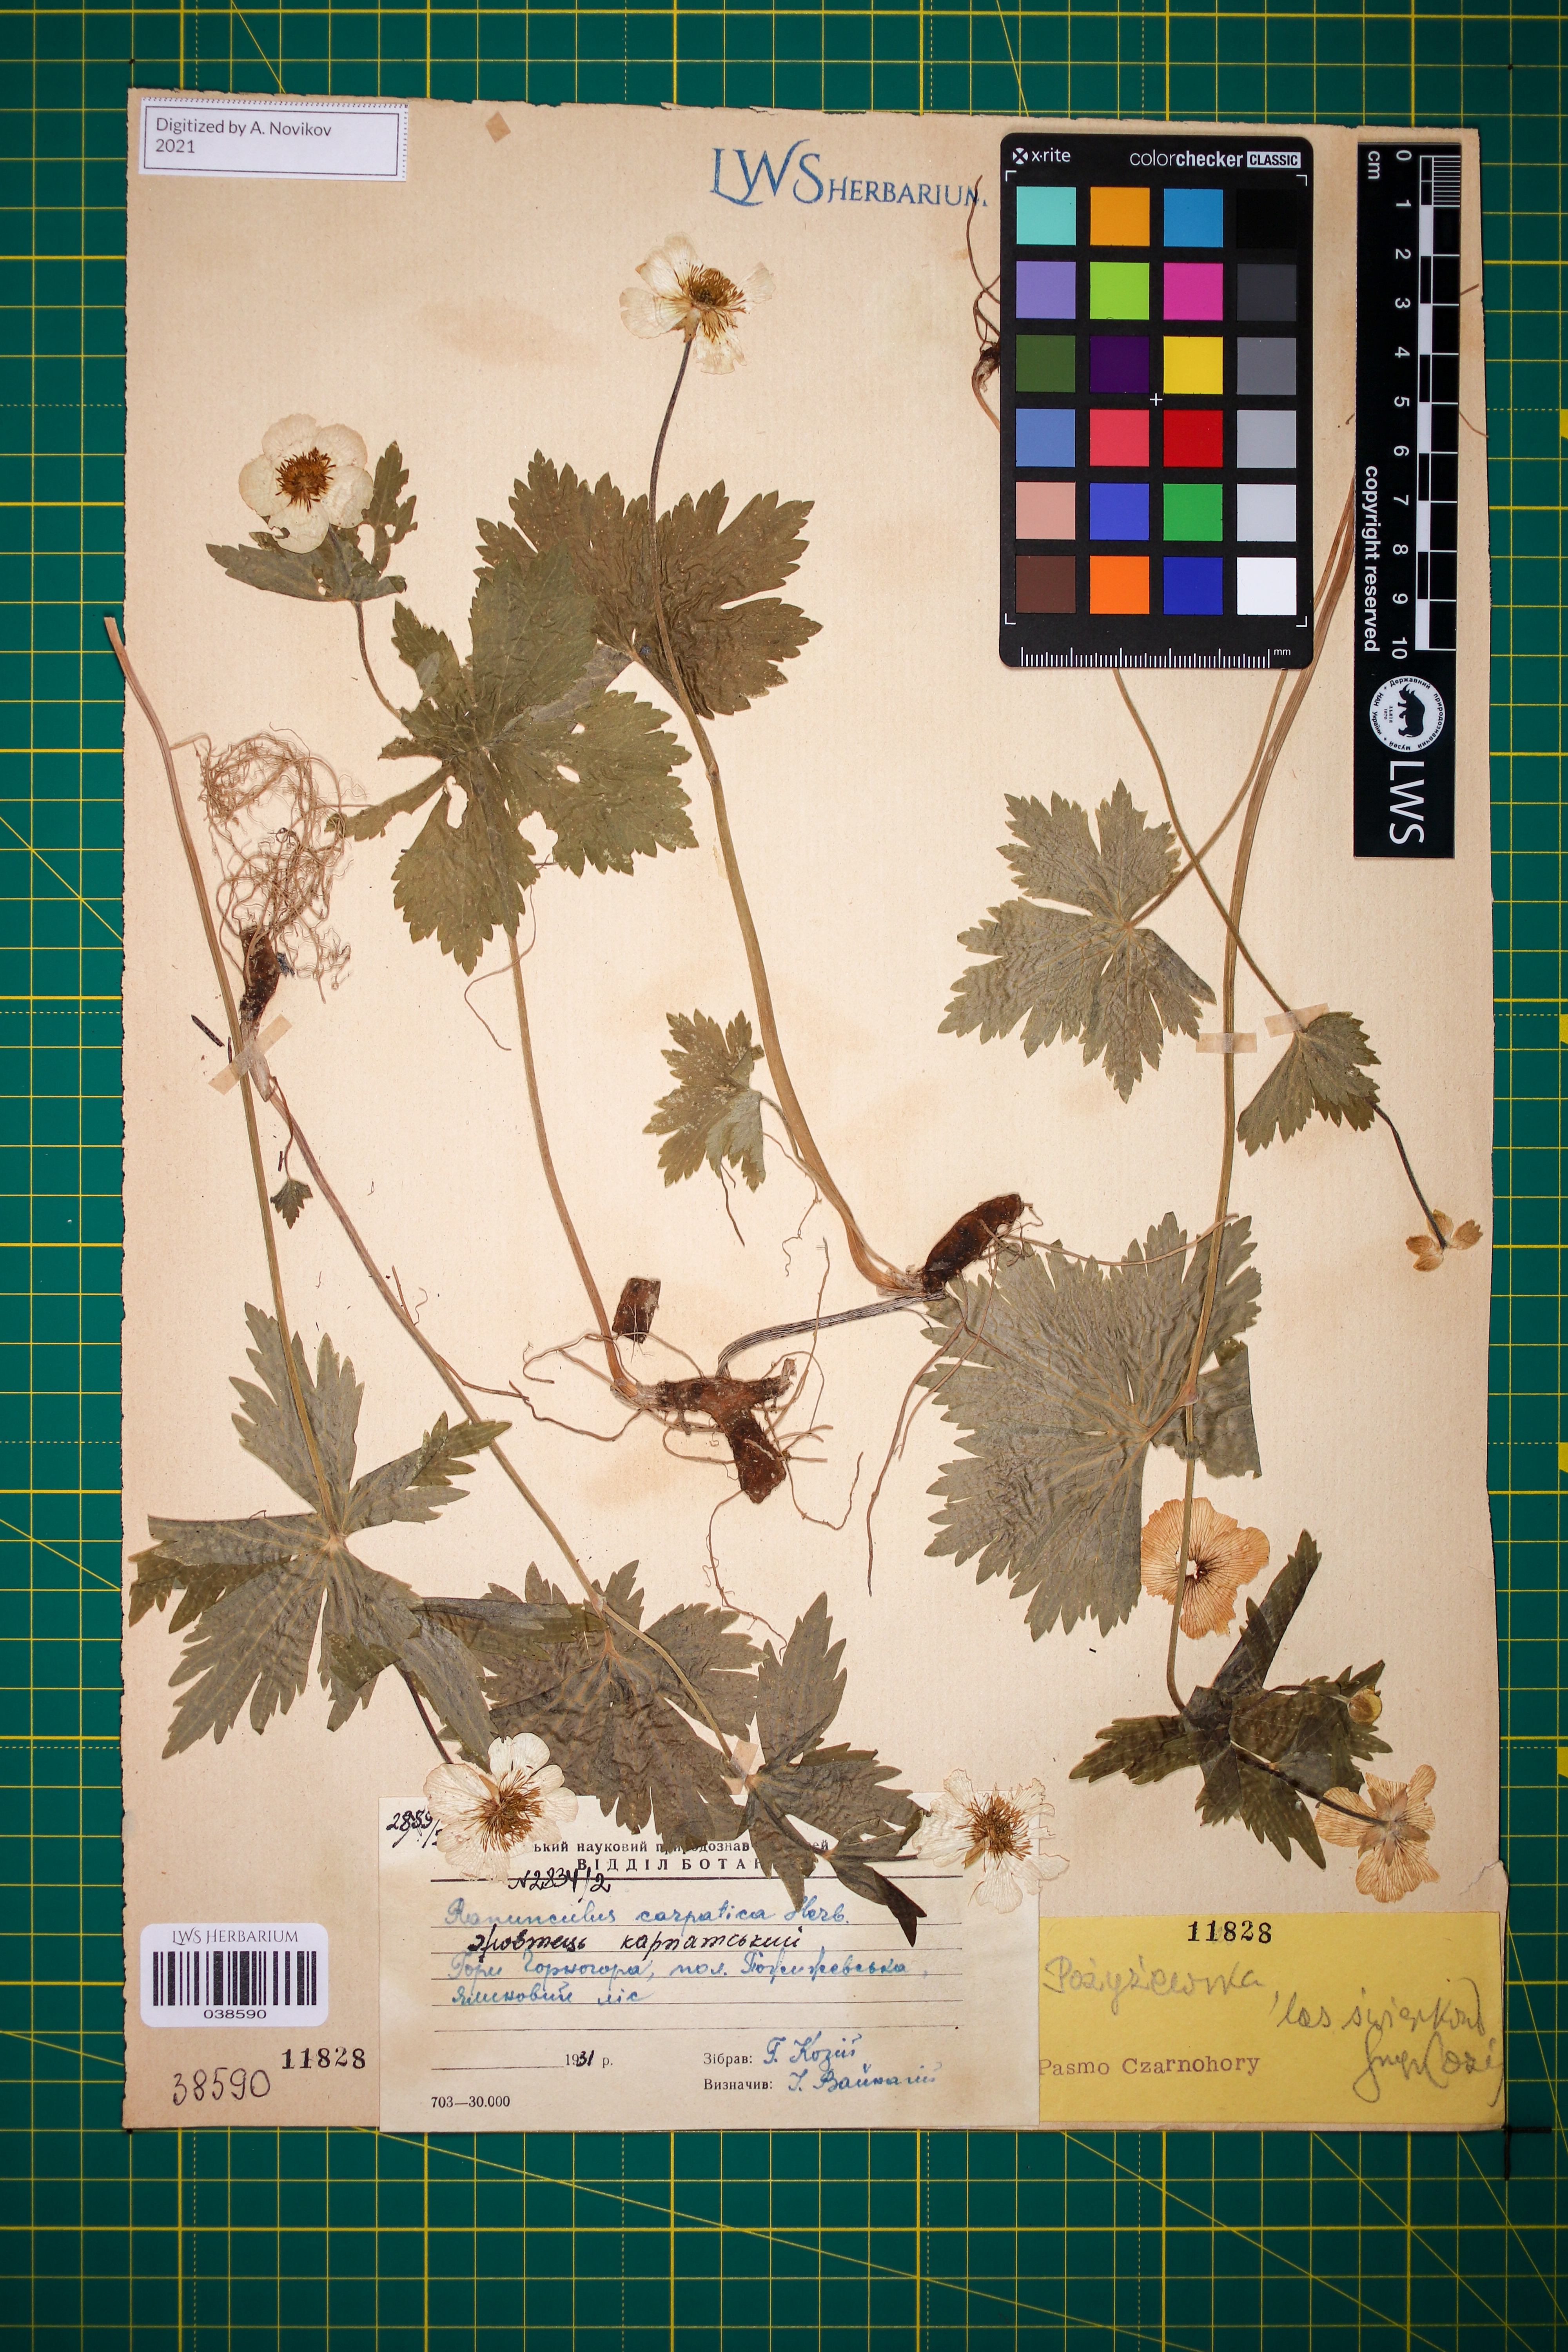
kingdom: Plantae
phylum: Tracheophyta
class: Magnoliopsida
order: Ranunculales
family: Ranunculaceae
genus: Ranunculus
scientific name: Ranunculus carpaticus
